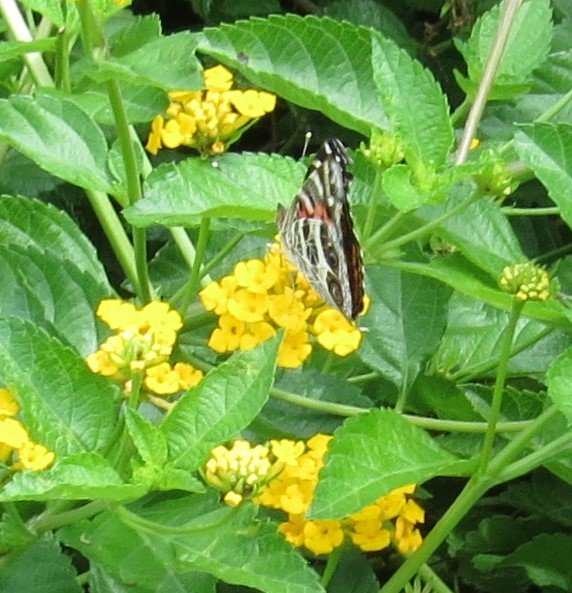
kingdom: Animalia
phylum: Arthropoda
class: Insecta
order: Lepidoptera
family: Nymphalidae
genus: Vanessa
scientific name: Vanessa virginiensis
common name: American Lady
